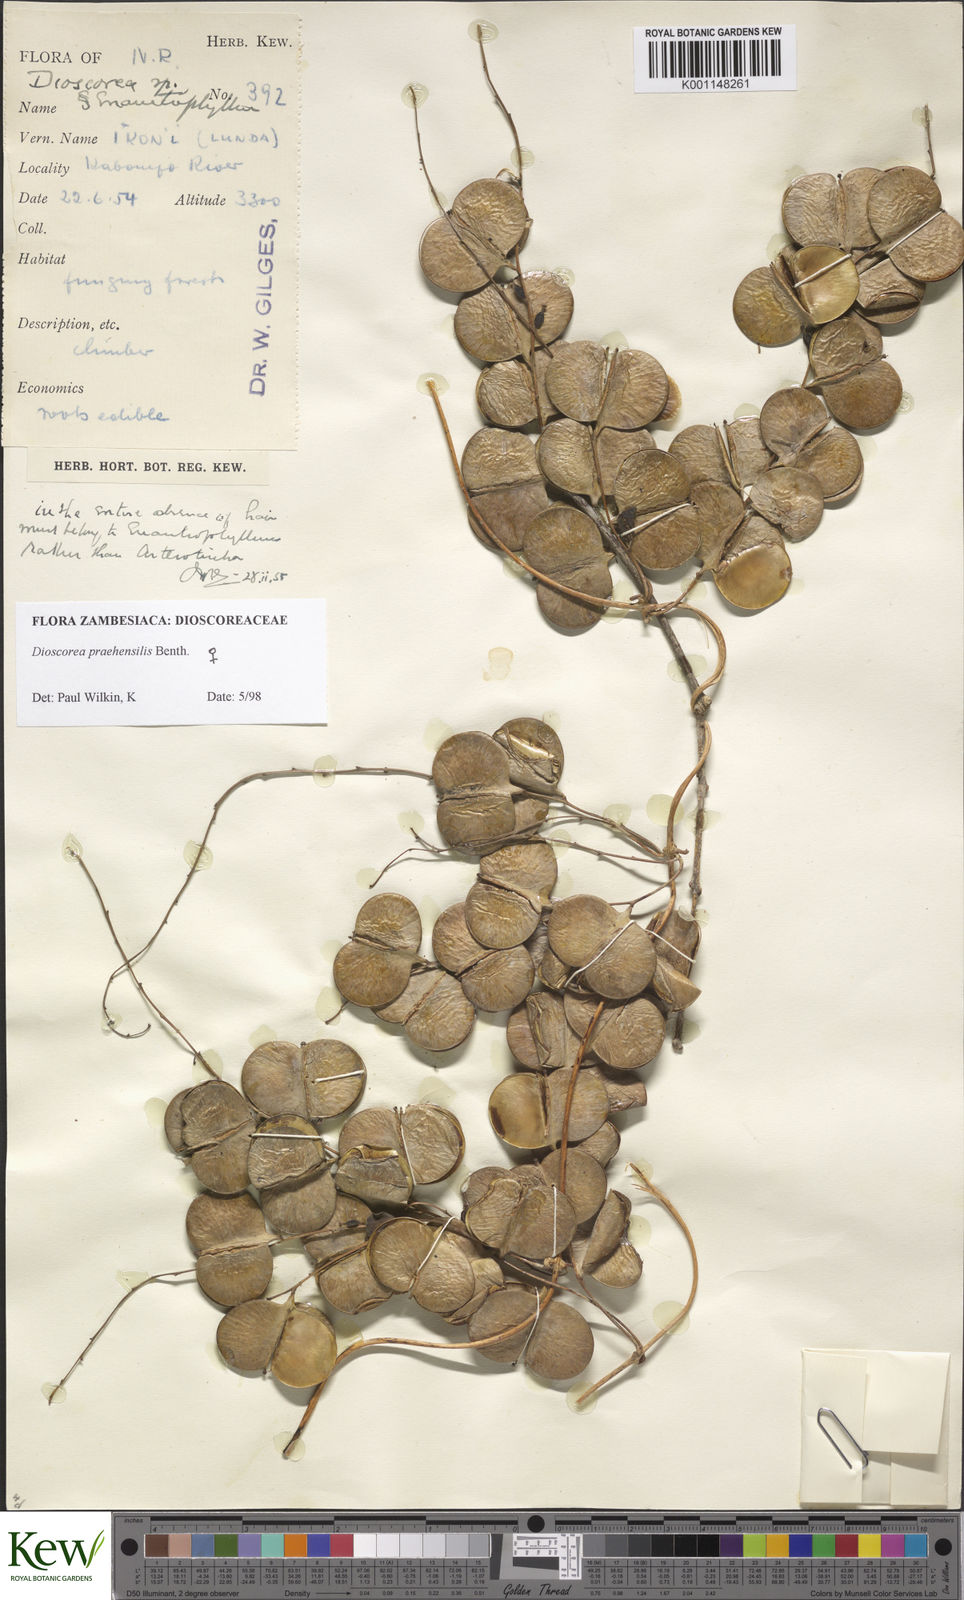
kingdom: Plantae
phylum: Tracheophyta
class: Liliopsida
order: Dioscoreales
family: Dioscoreaceae
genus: Dioscorea
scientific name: Dioscorea praehensilis
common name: Bush yam
